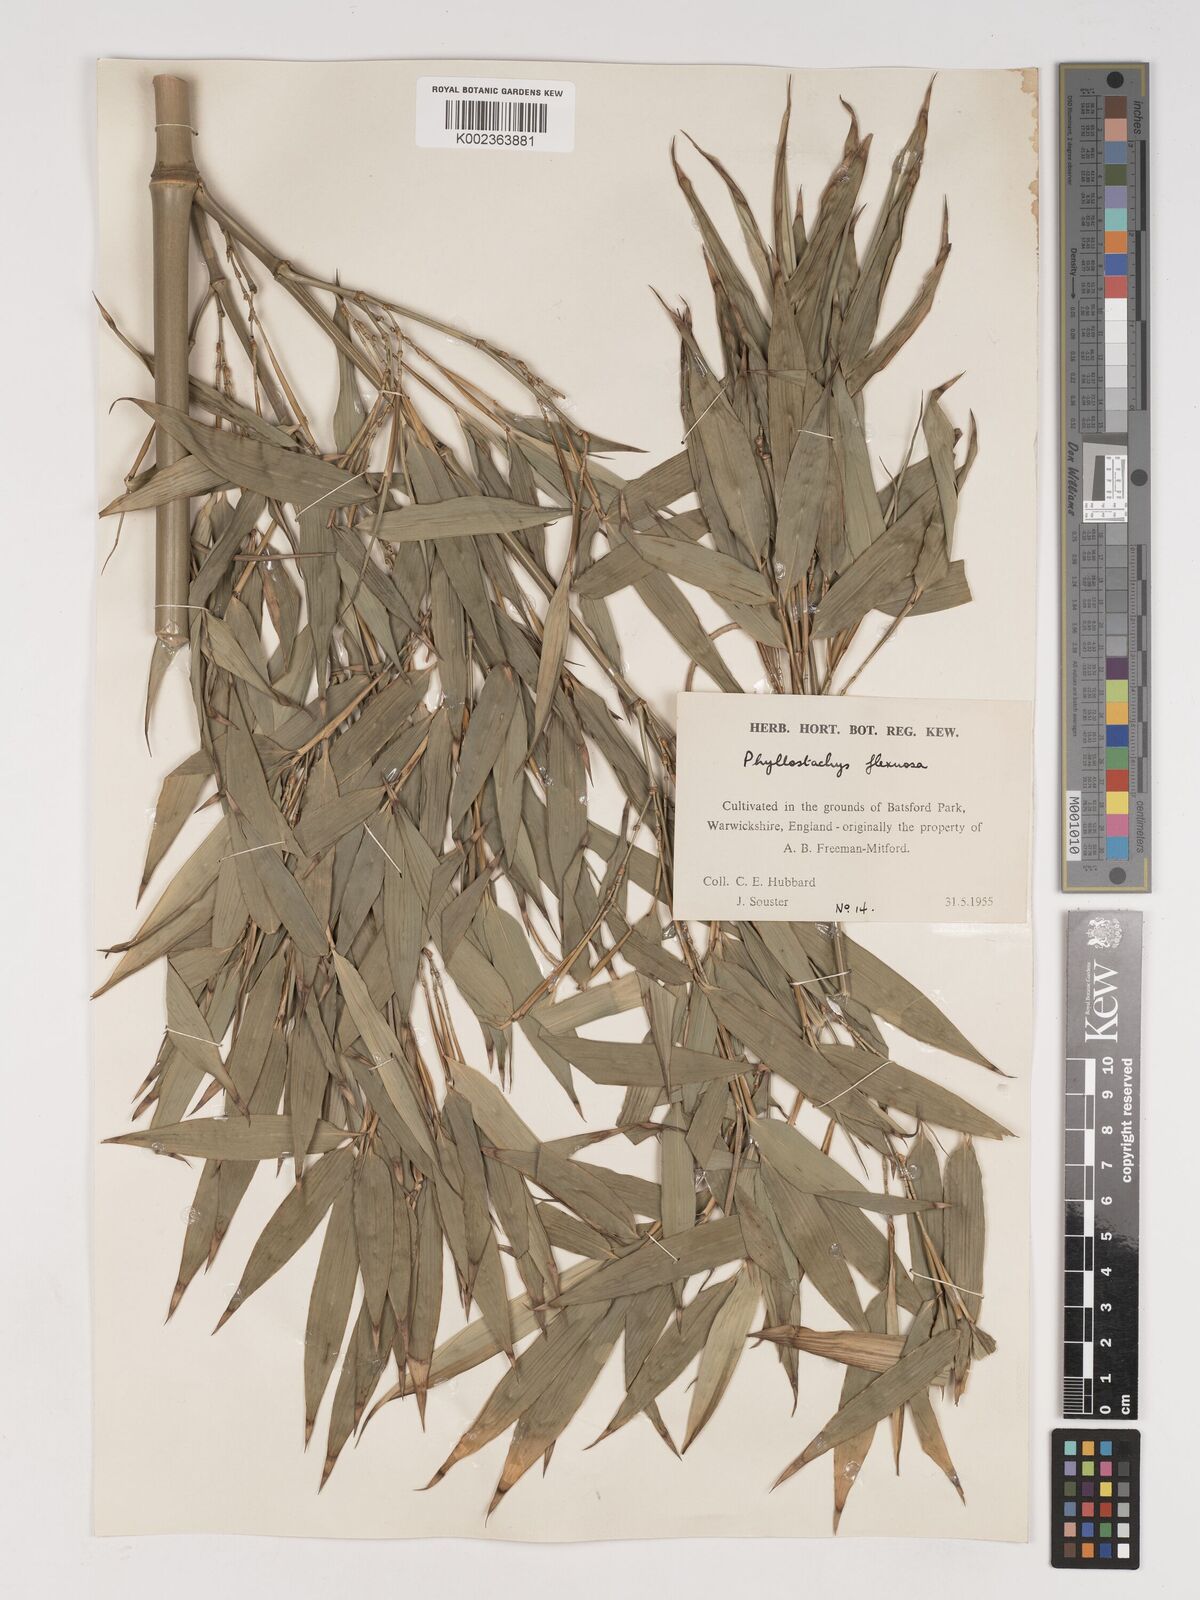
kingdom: Plantae
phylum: Tracheophyta
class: Liliopsida
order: Poales
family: Poaceae
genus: Phyllostachys
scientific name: Phyllostachys flexuosa
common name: Drooping timber bamboo
